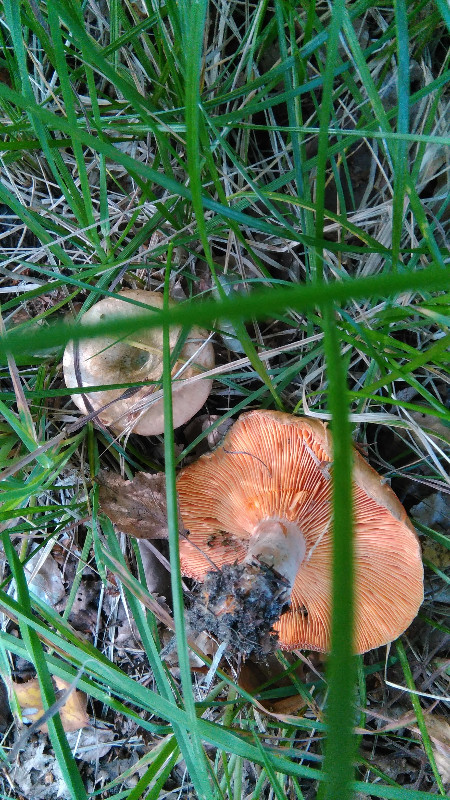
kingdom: Fungi
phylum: Basidiomycota
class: Agaricomycetes
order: Russulales
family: Russulaceae
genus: Lactarius
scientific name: Lactarius deterrimus
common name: gran-mælkehat
